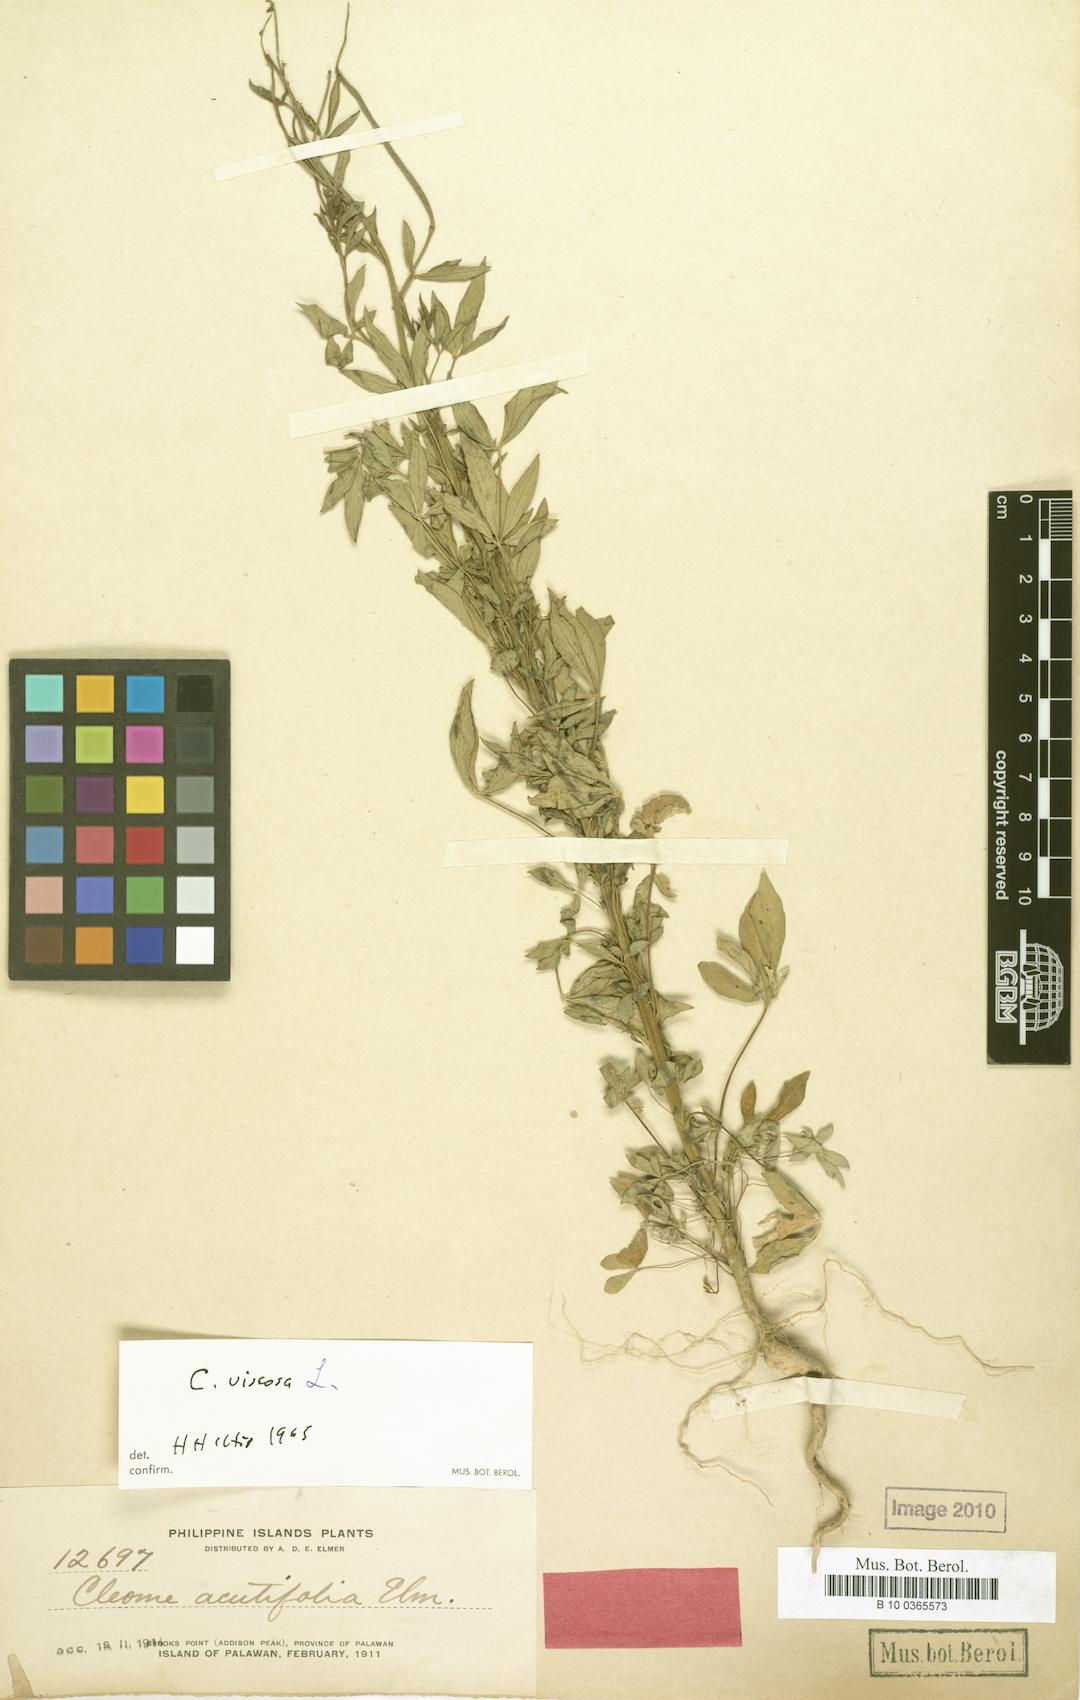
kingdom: Plantae
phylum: Tracheophyta
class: Magnoliopsida
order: Brassicales
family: Cleomaceae
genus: Arivela
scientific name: Arivela viscosa
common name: Asian spiderflower
